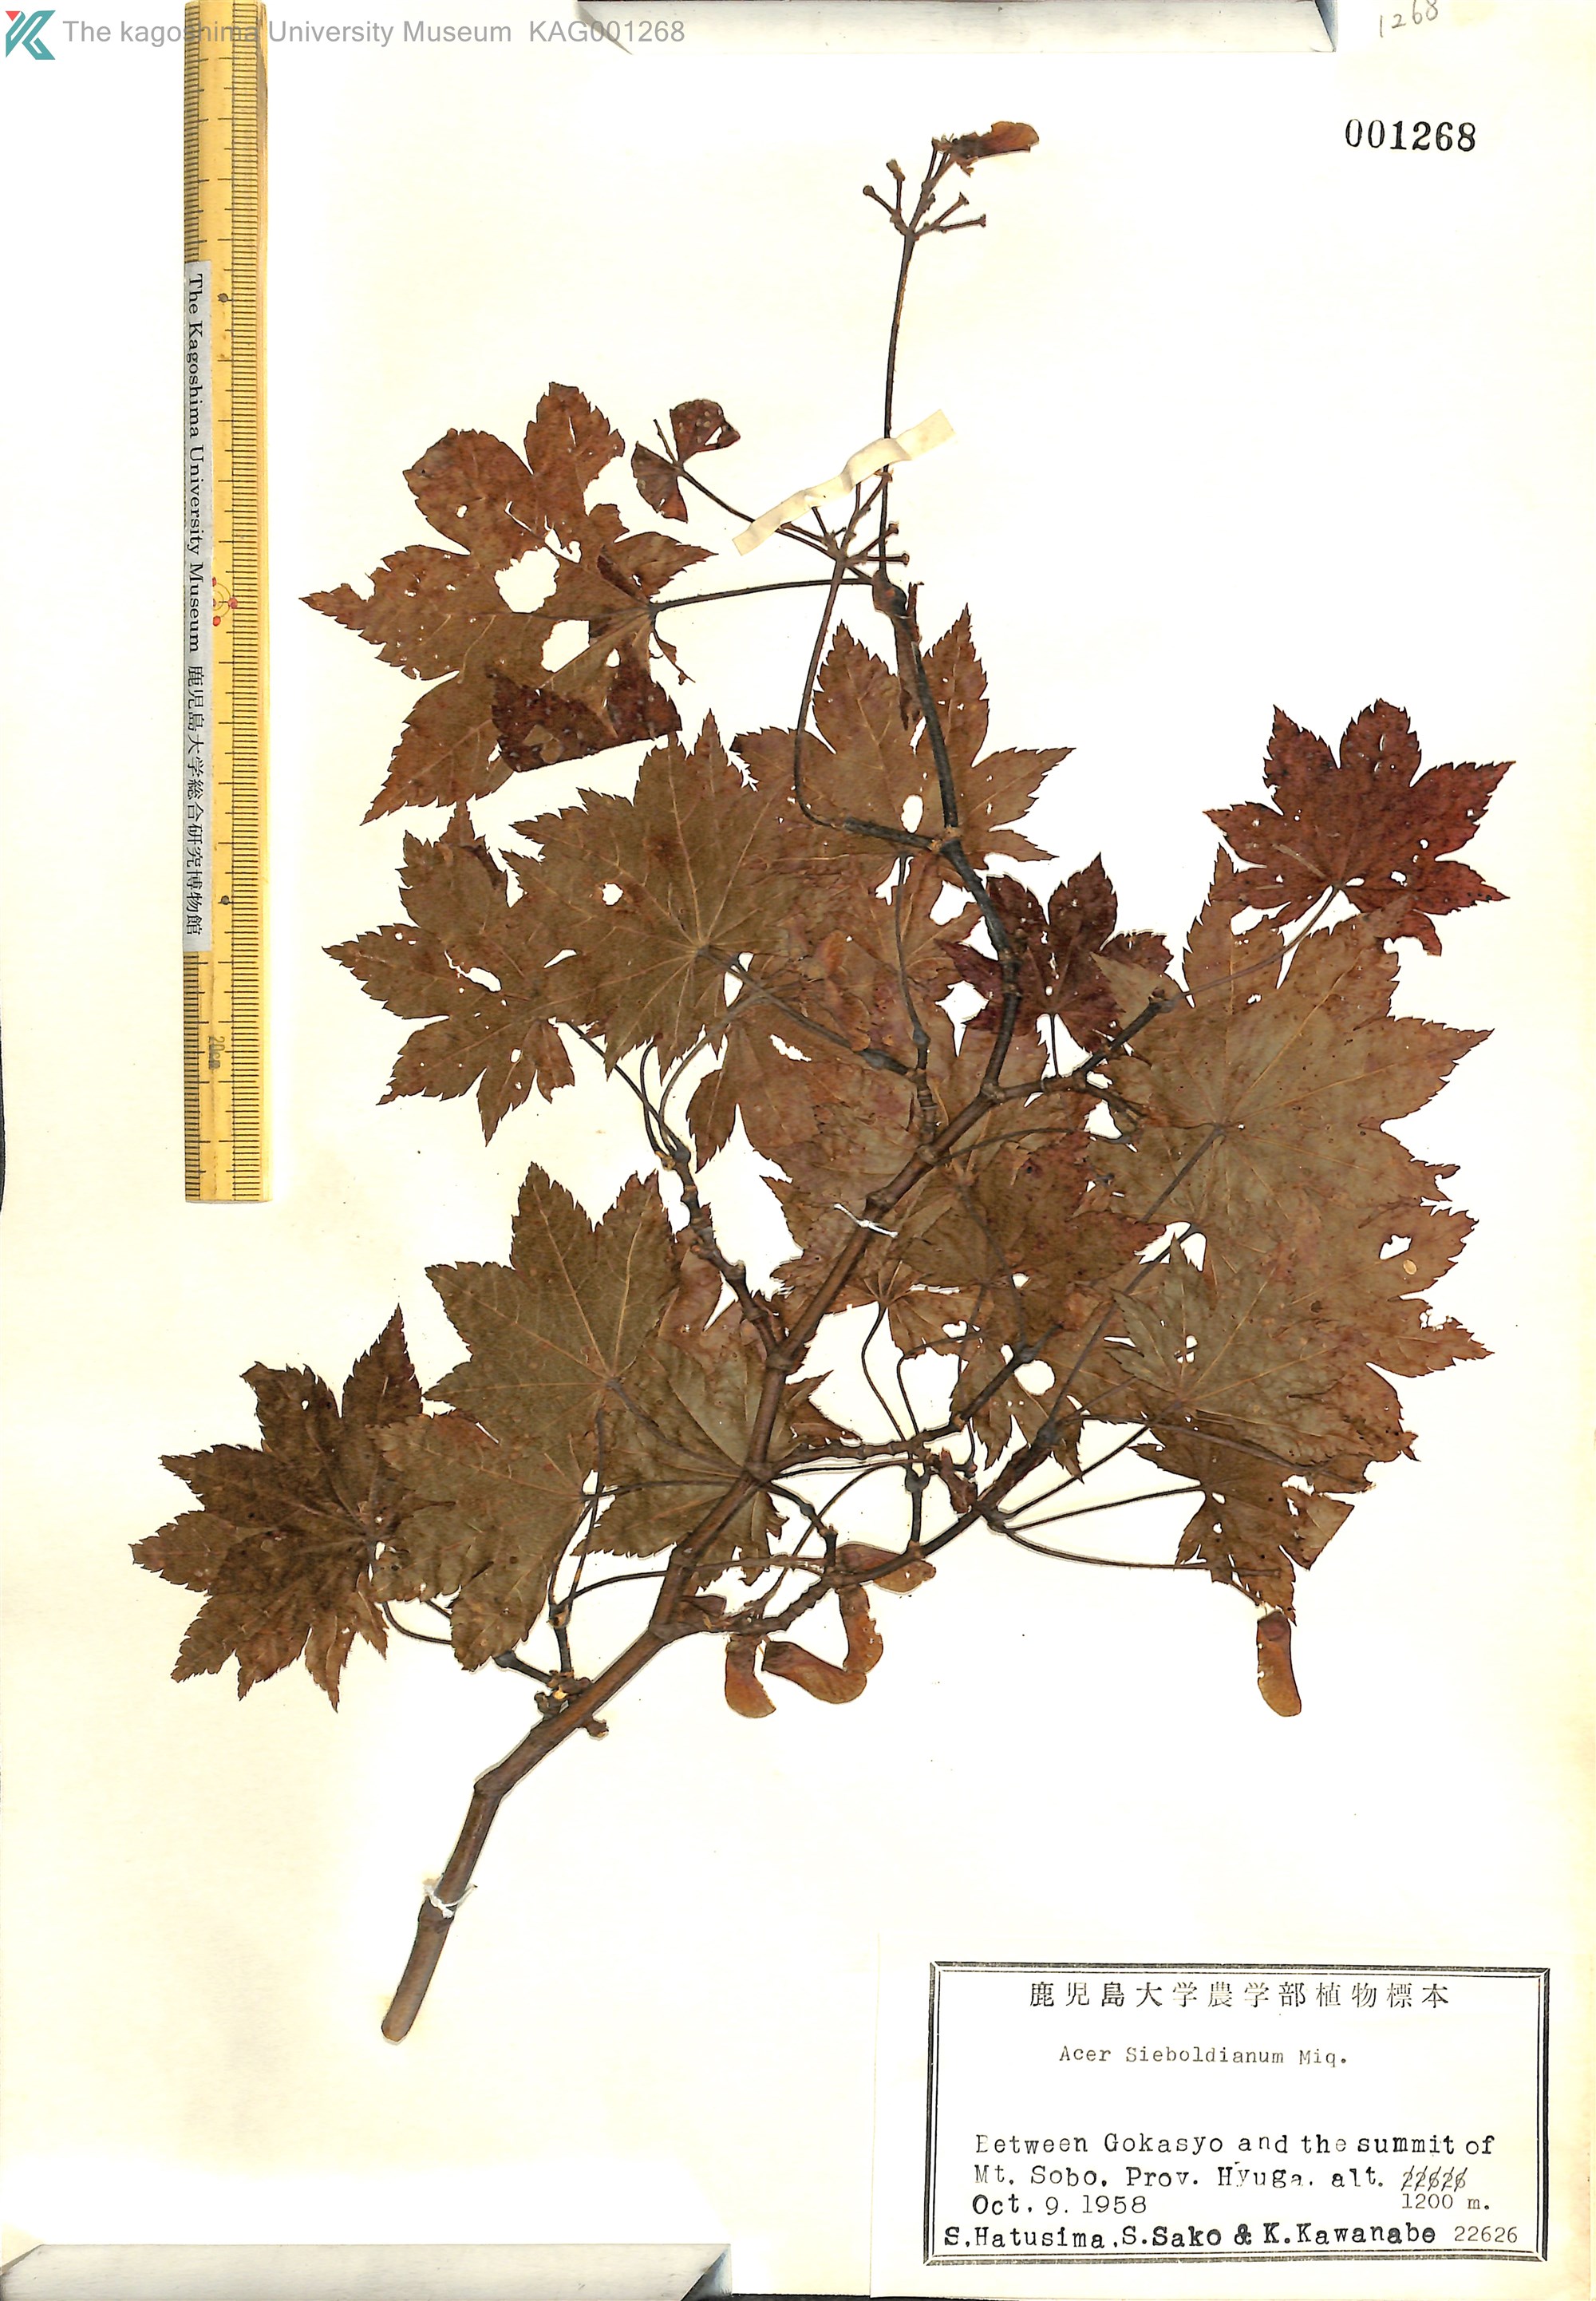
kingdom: Plantae
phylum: Tracheophyta
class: Magnoliopsida
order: Sapindales
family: Sapindaceae
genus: Acer
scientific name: Acer sieboldianum
